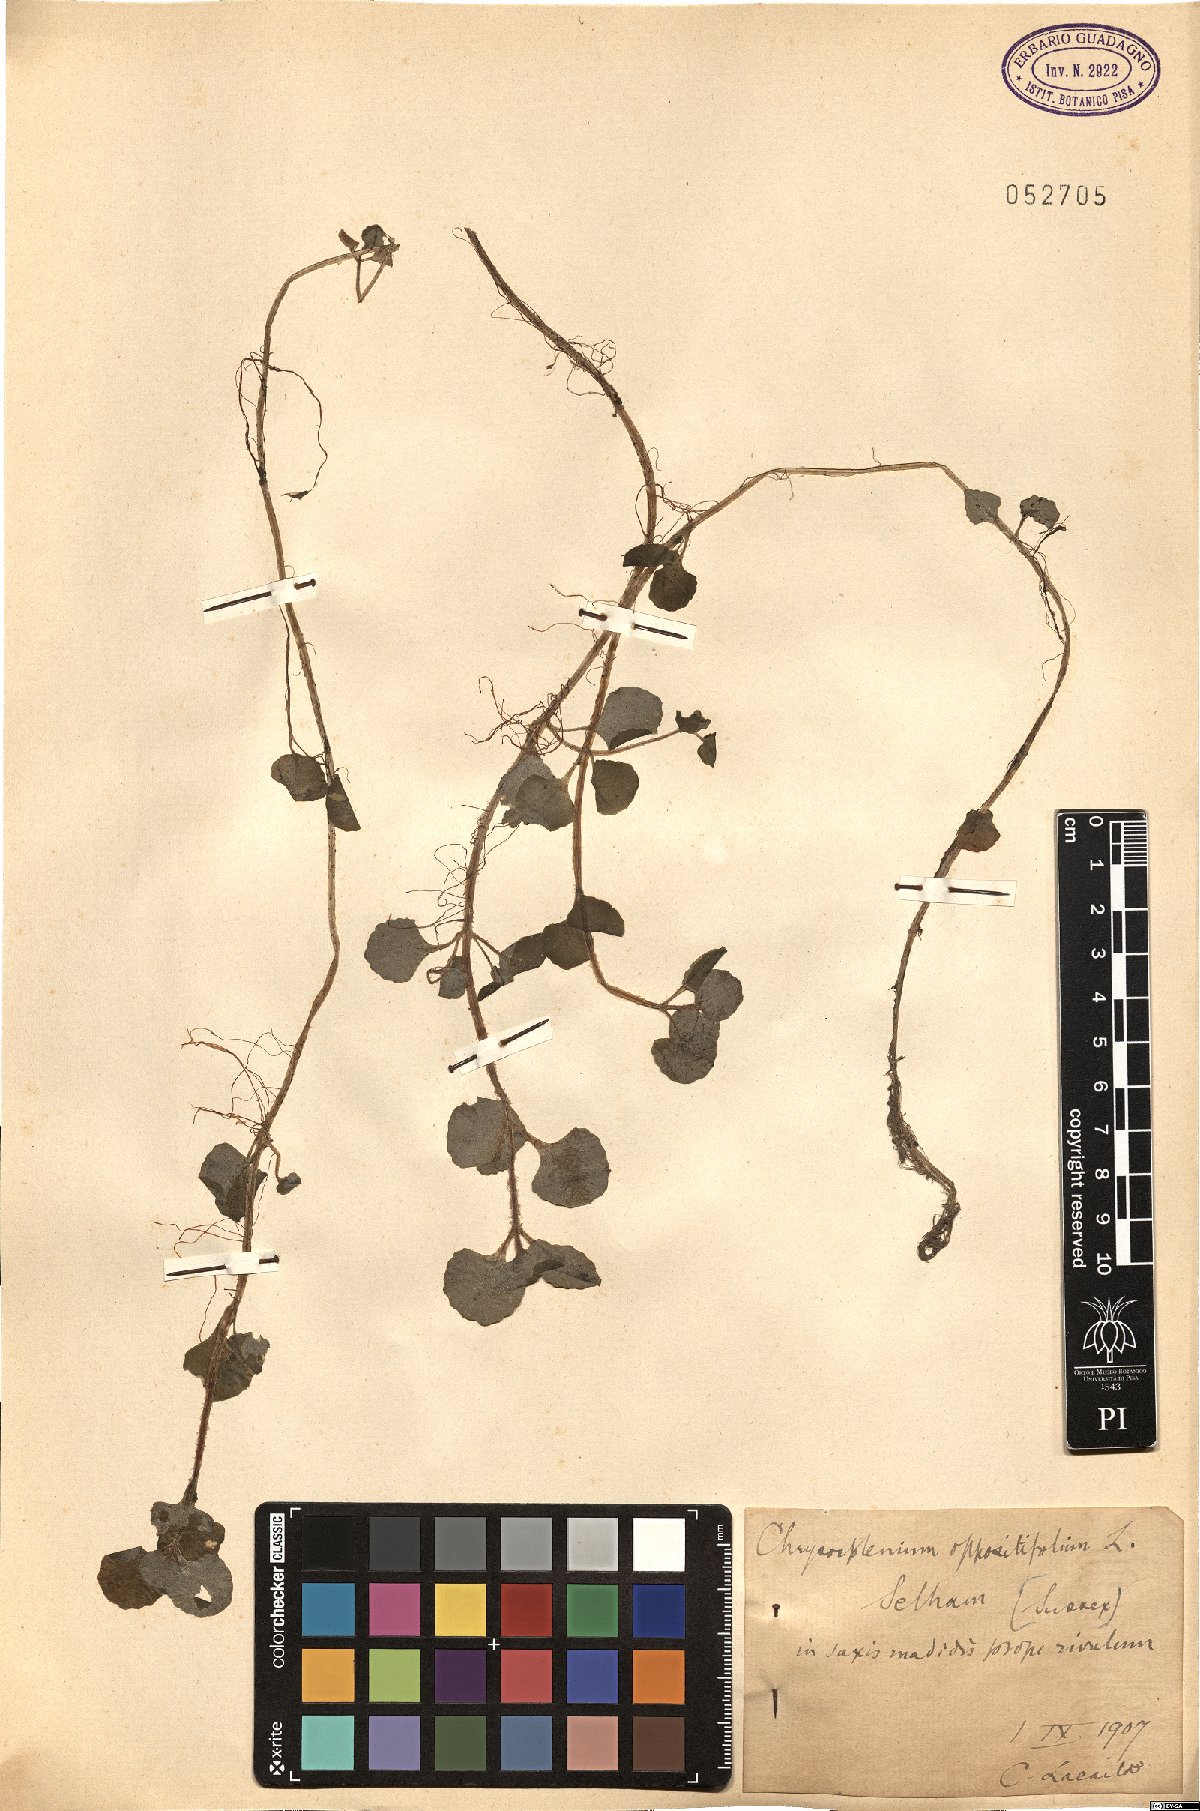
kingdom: Plantae
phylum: Tracheophyta
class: Magnoliopsida
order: Saxifragales
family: Saxifragaceae
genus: Chrysosplenium
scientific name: Chrysosplenium oppositifolium
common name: Opposite-leaved golden-saxifrage
